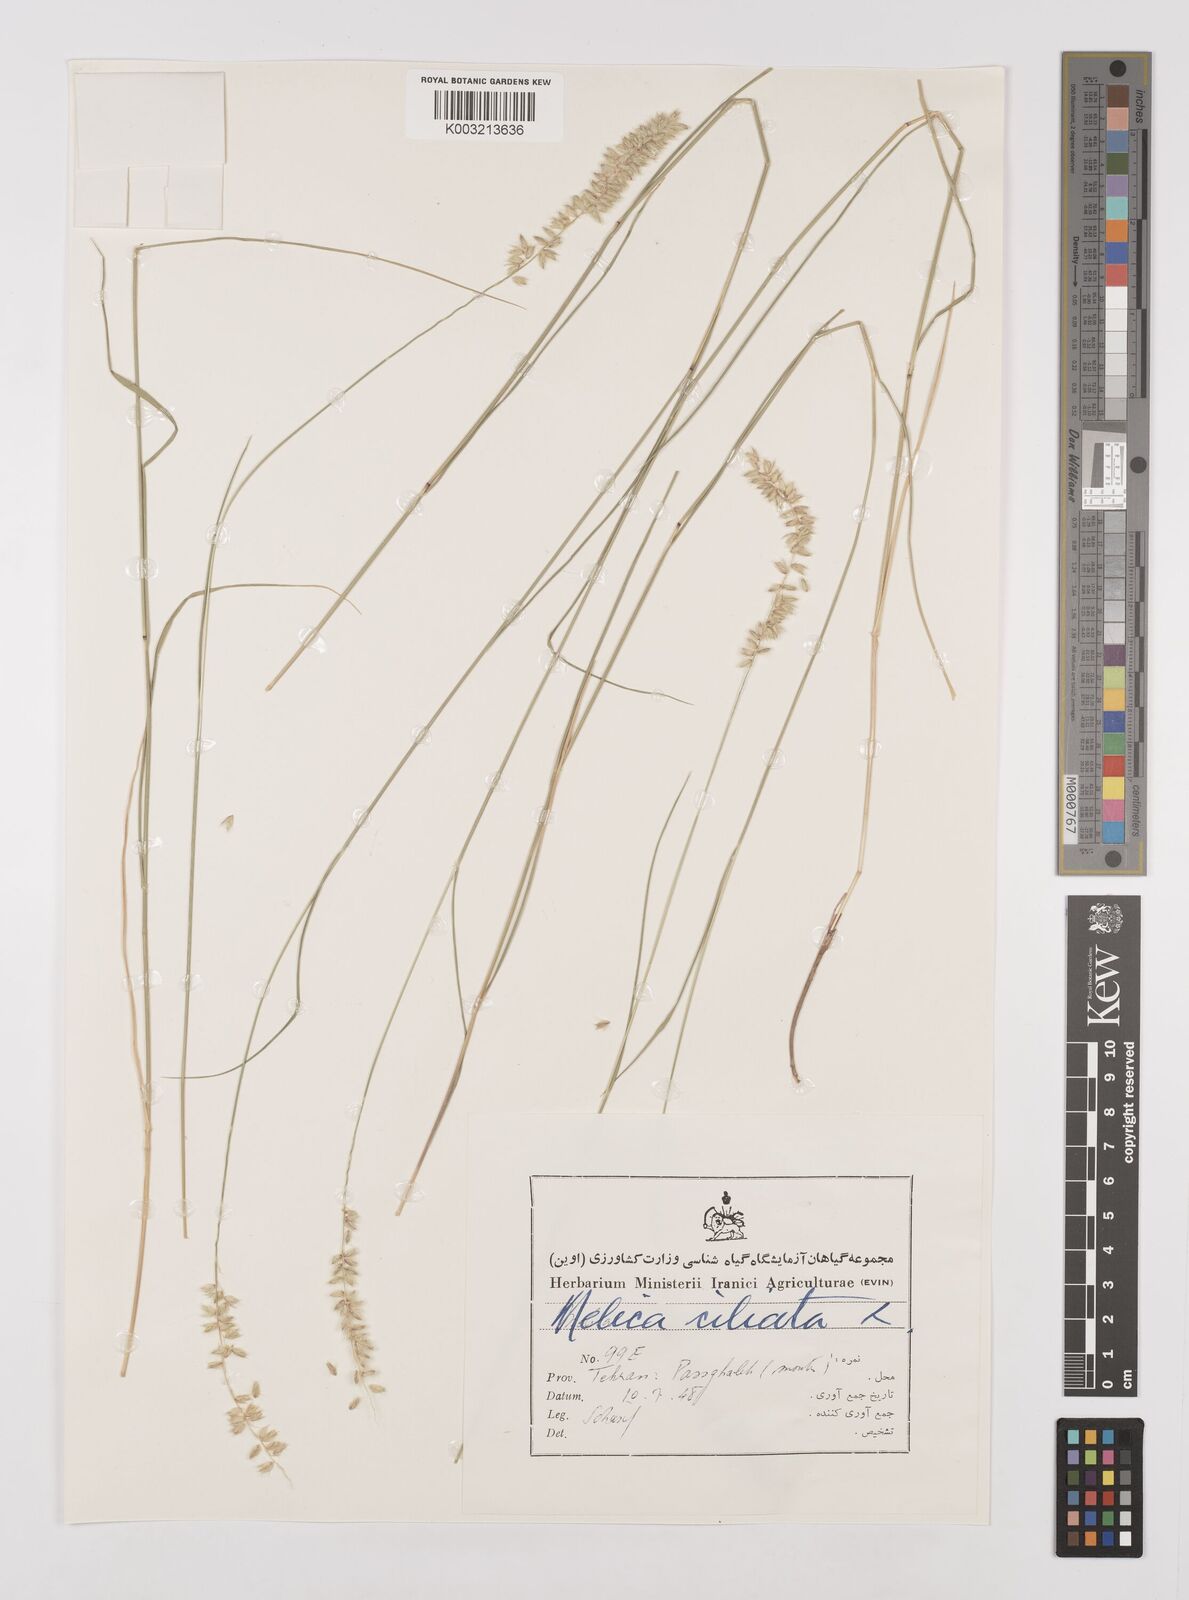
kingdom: Plantae
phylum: Tracheophyta
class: Liliopsida
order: Poales
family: Poaceae
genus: Melica
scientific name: Melica ciliata
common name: Hairy melicgrass
